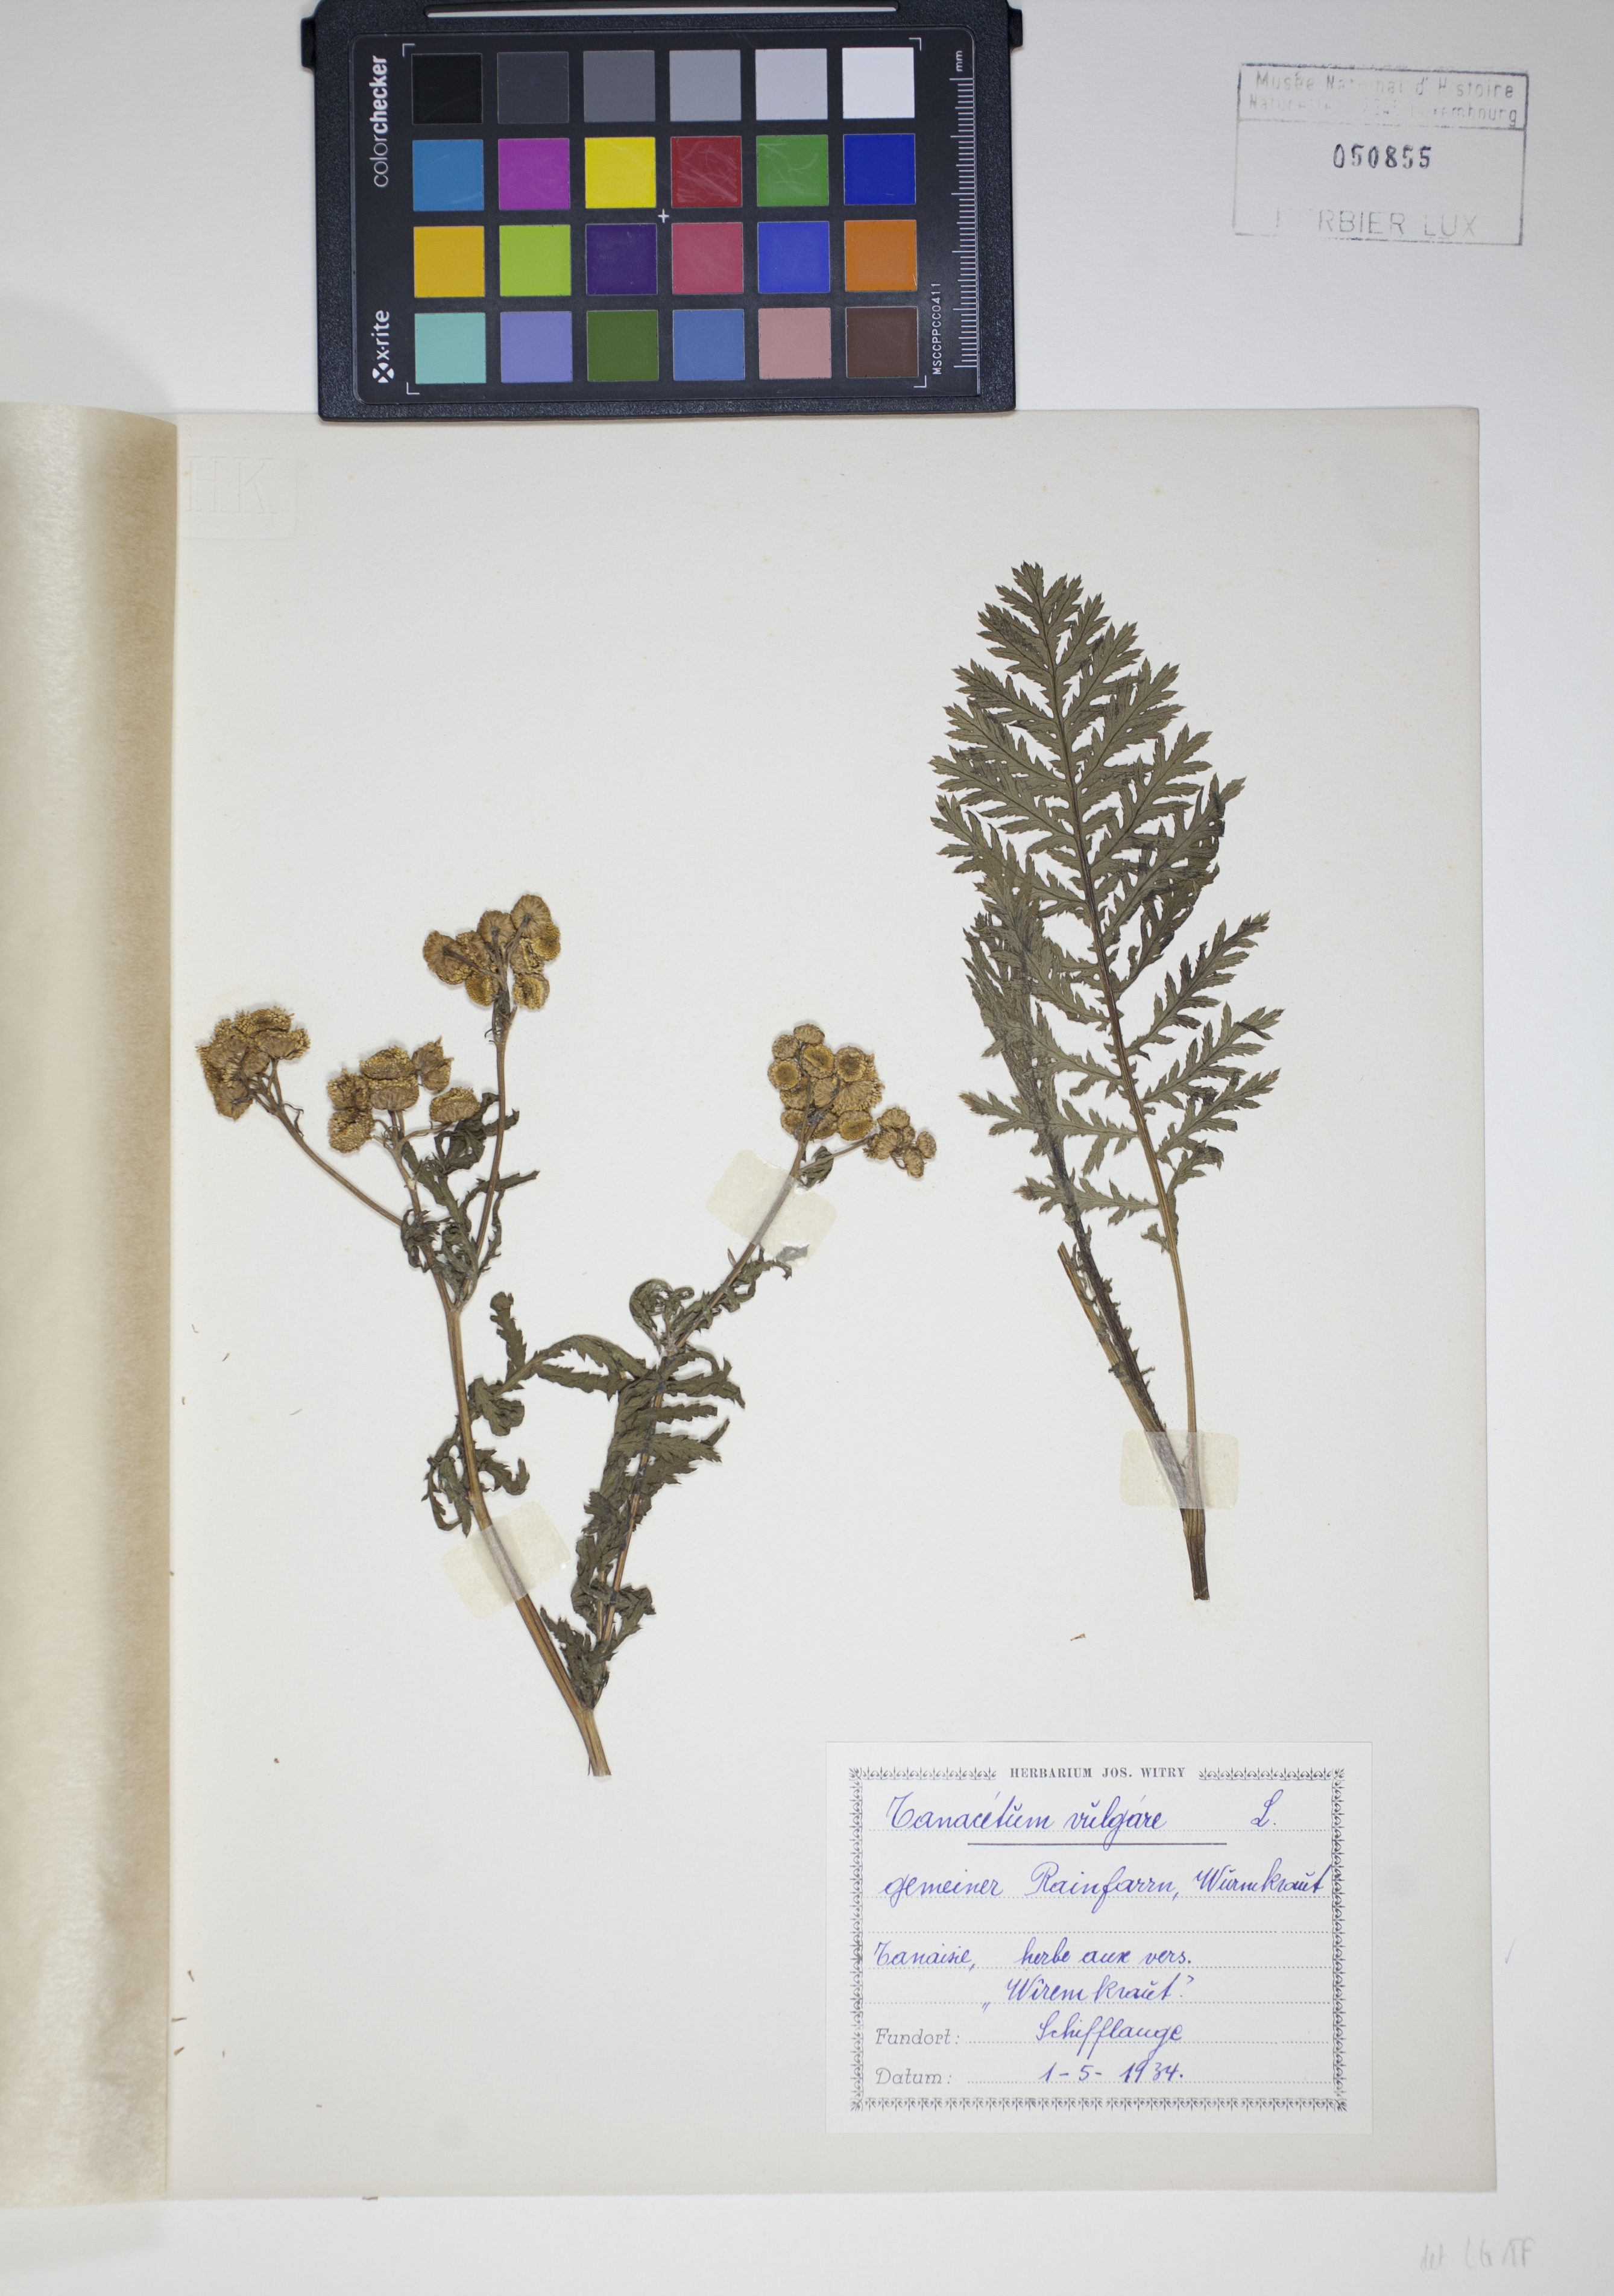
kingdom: Plantae
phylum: Tracheophyta
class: Magnoliopsida
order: Asterales
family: Asteraceae
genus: Tanacetum
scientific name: Tanacetum vulgare
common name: Common tansy
